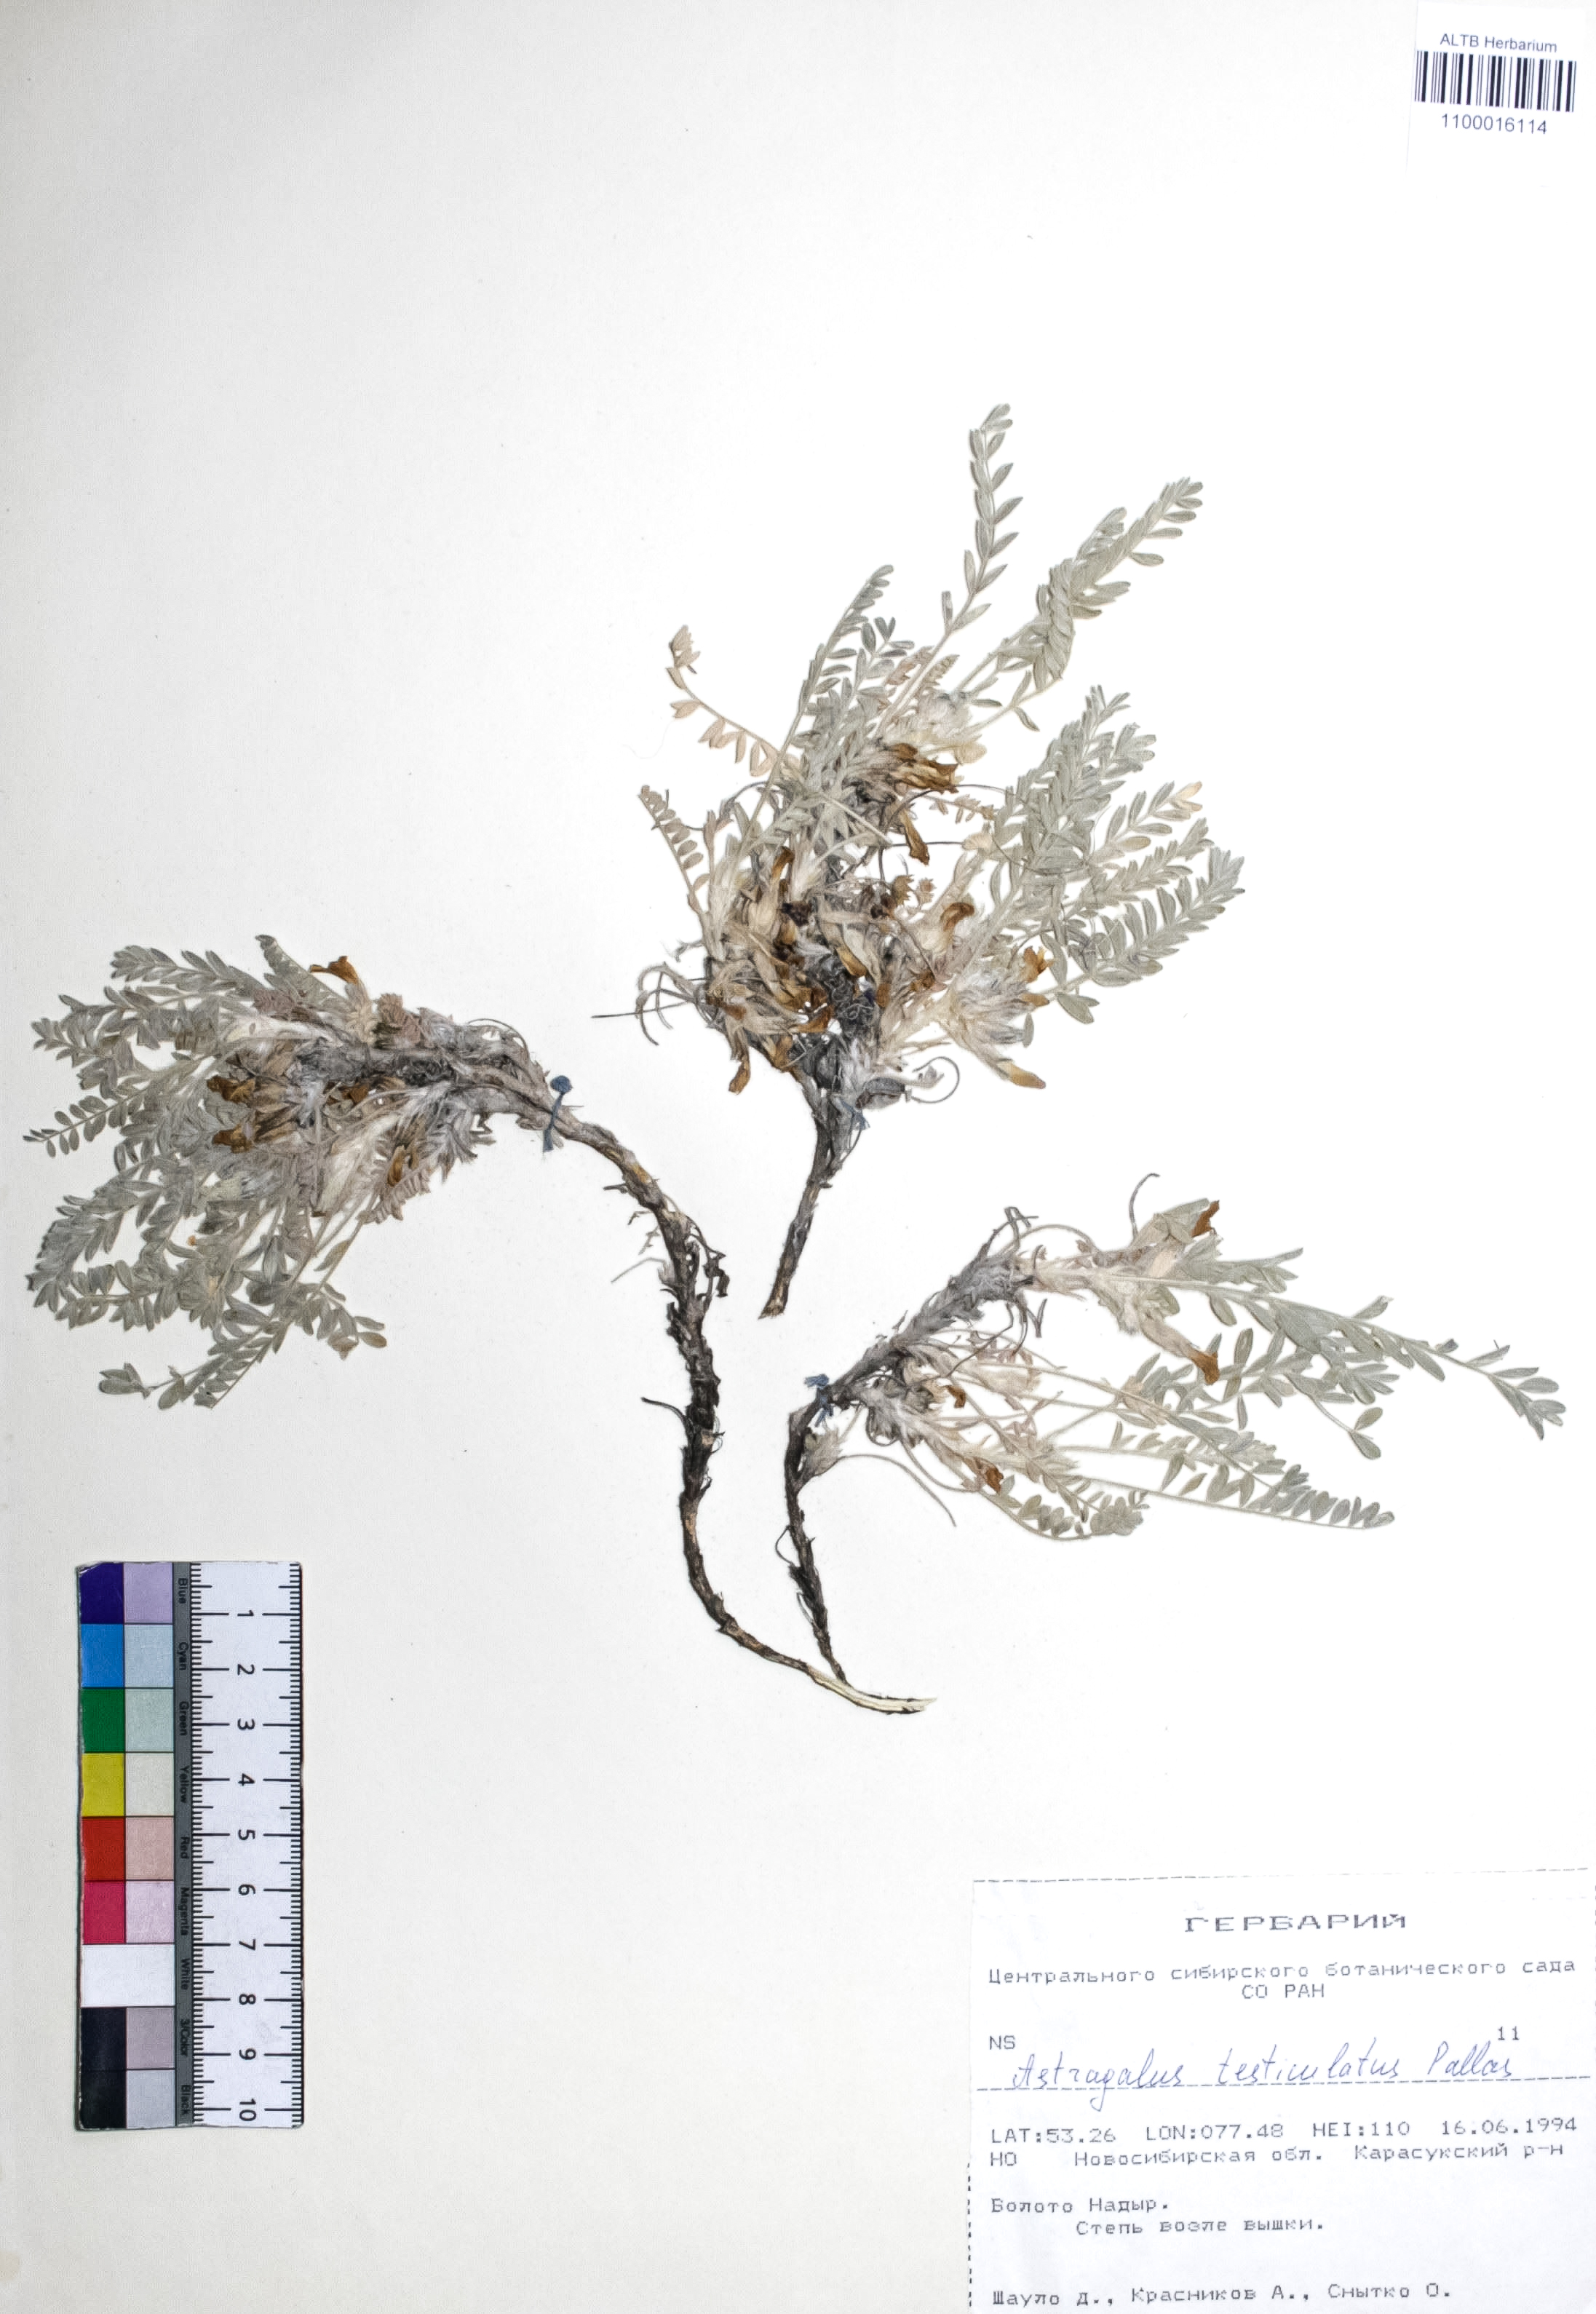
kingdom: Plantae
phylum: Tracheophyta
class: Magnoliopsida
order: Fabales
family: Fabaceae
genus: Astragalus
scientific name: Astragalus testiculatus
